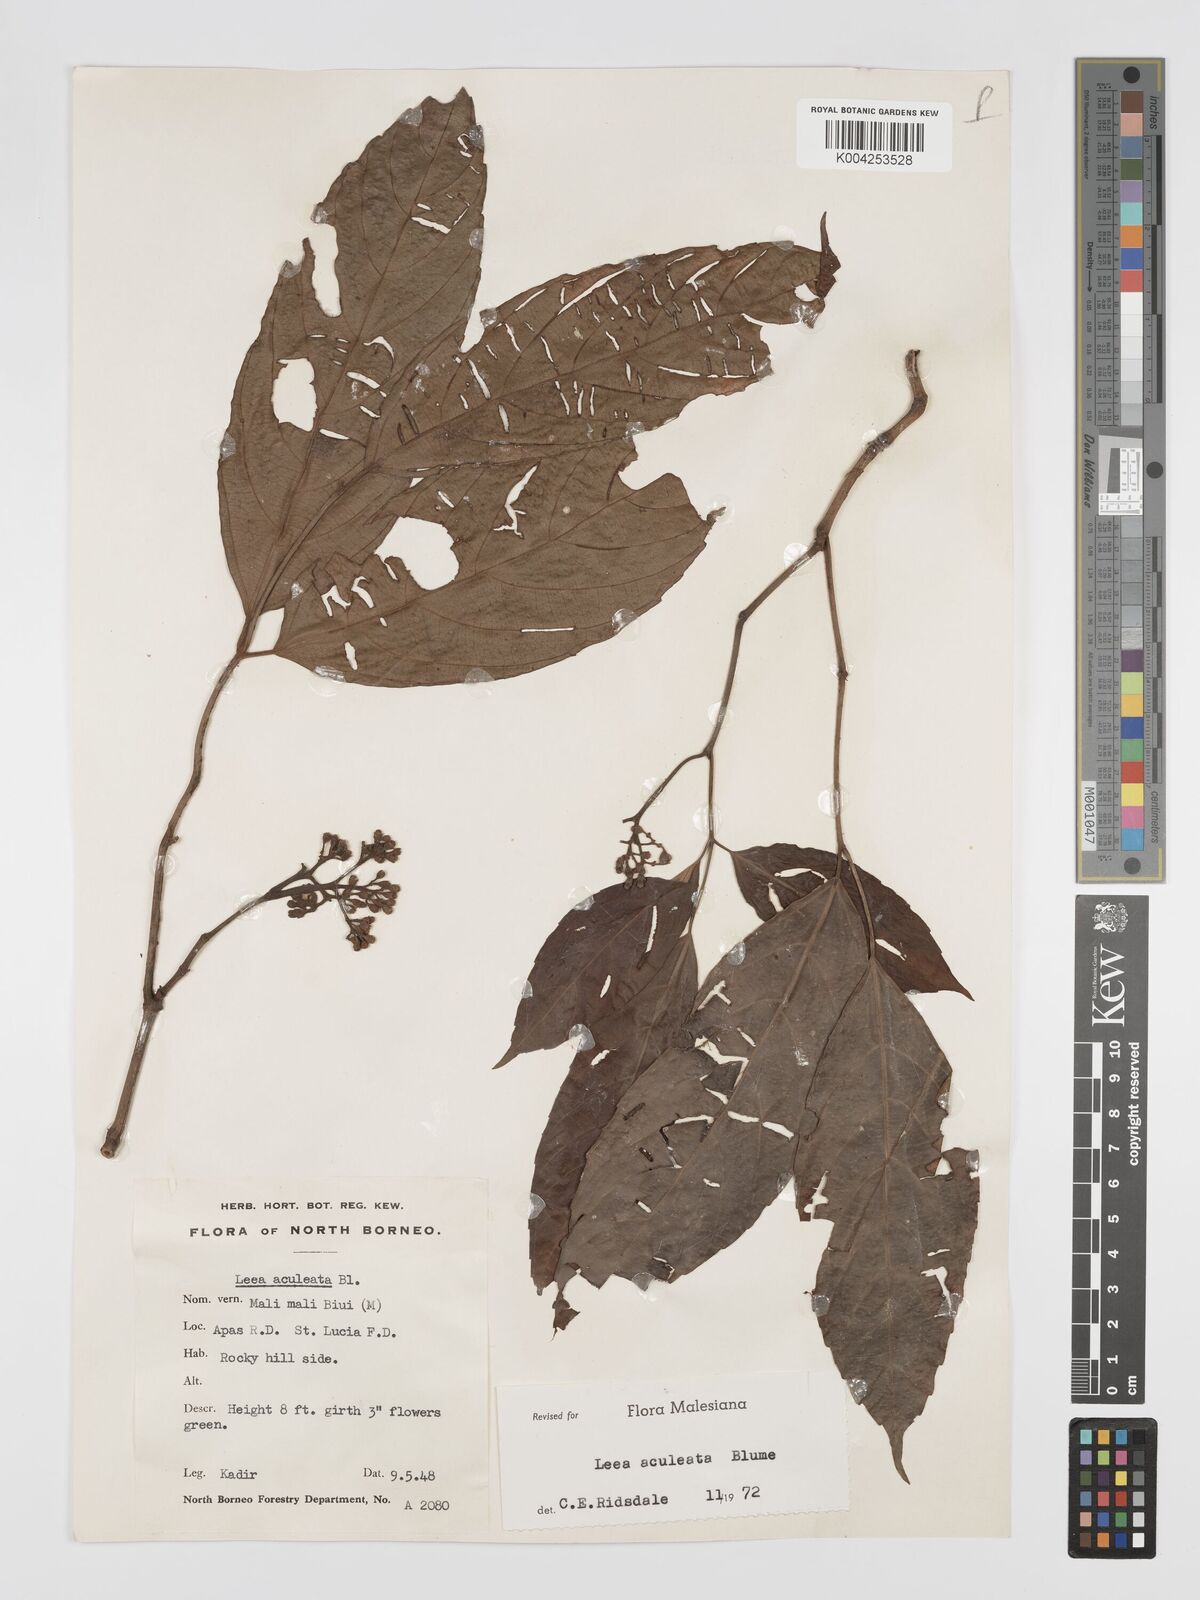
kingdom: Plantae
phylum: Tracheophyta
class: Magnoliopsida
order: Vitales
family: Vitaceae
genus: Leea
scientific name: Leea aculeata
